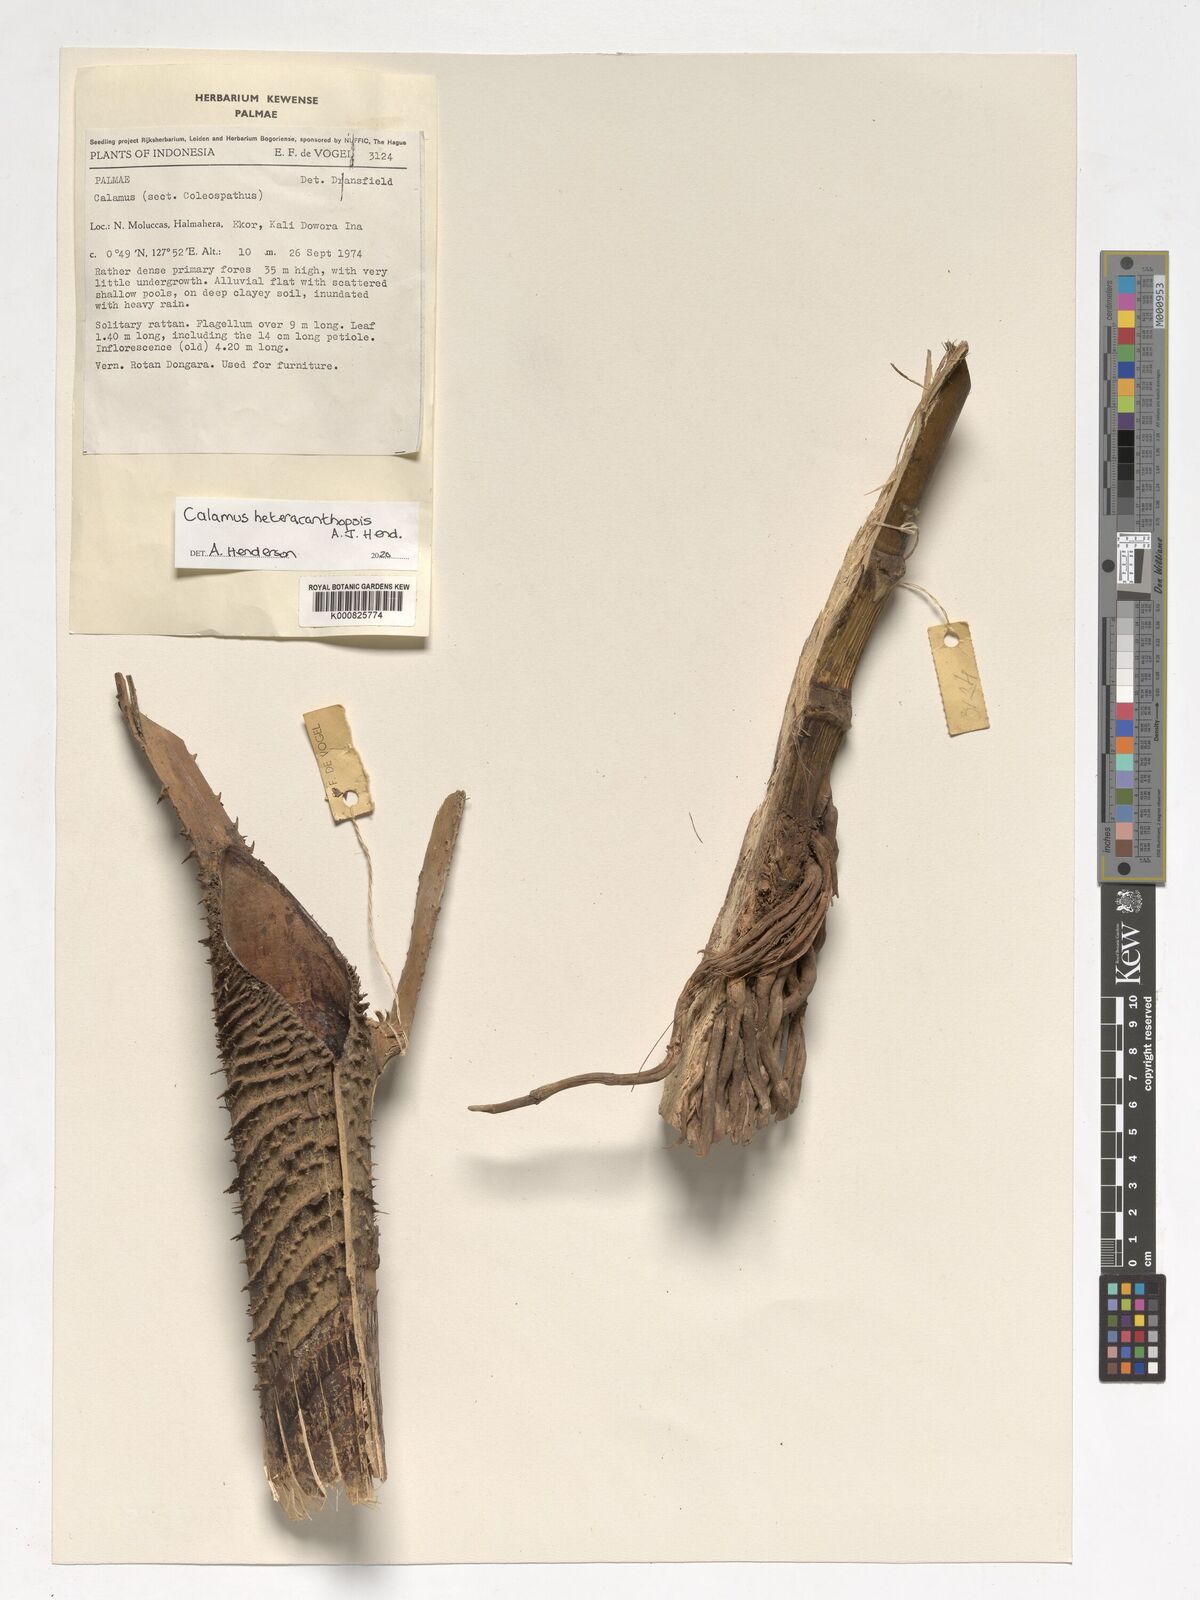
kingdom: Plantae
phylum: Tracheophyta
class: Liliopsida
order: Arecales
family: Arecaceae
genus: Calamus
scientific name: Calamus
